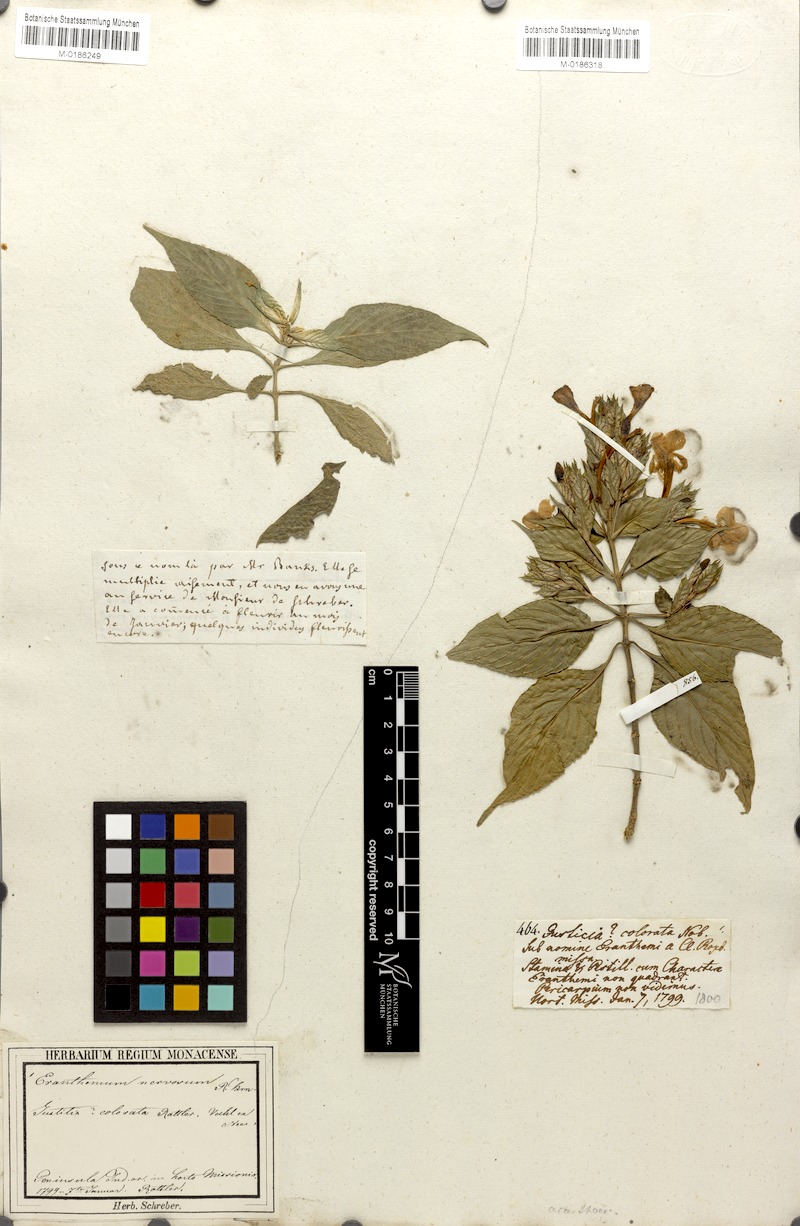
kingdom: Plantae
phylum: Tracheophyta
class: Magnoliopsida
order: Lamiales
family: Acanthaceae
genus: Eranthemum
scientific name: Eranthemum pulchellum
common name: Blue-sage
